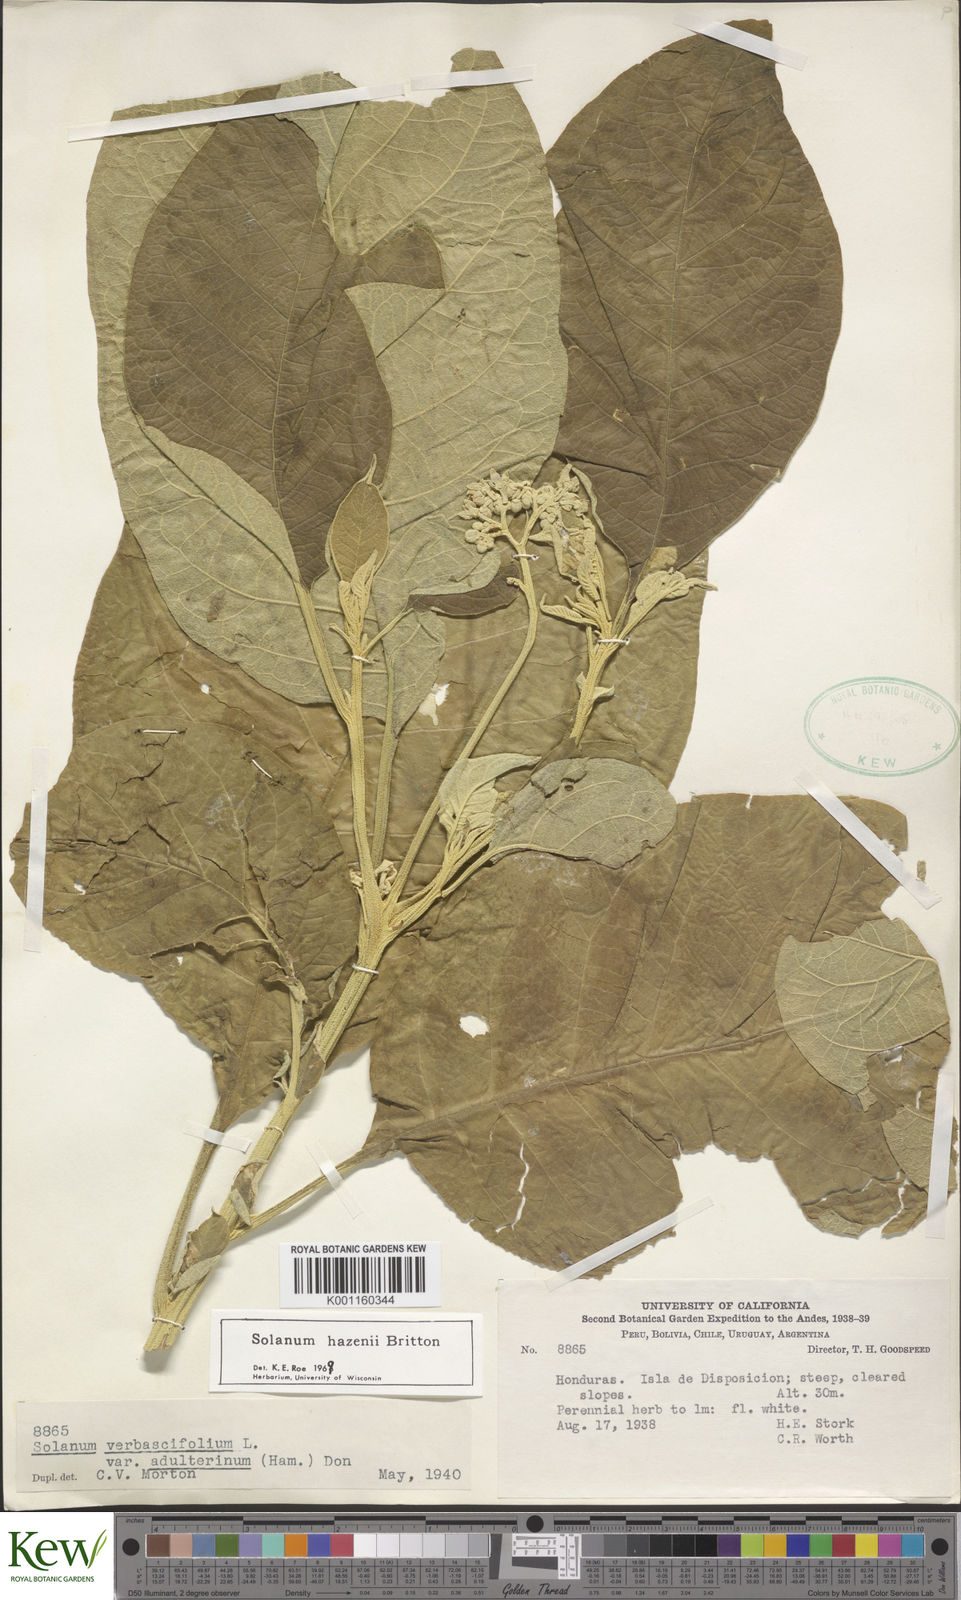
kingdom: Plantae
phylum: Tracheophyta
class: Magnoliopsida
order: Solanales
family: Solanaceae
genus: Solanum
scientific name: Solanum hazenii
